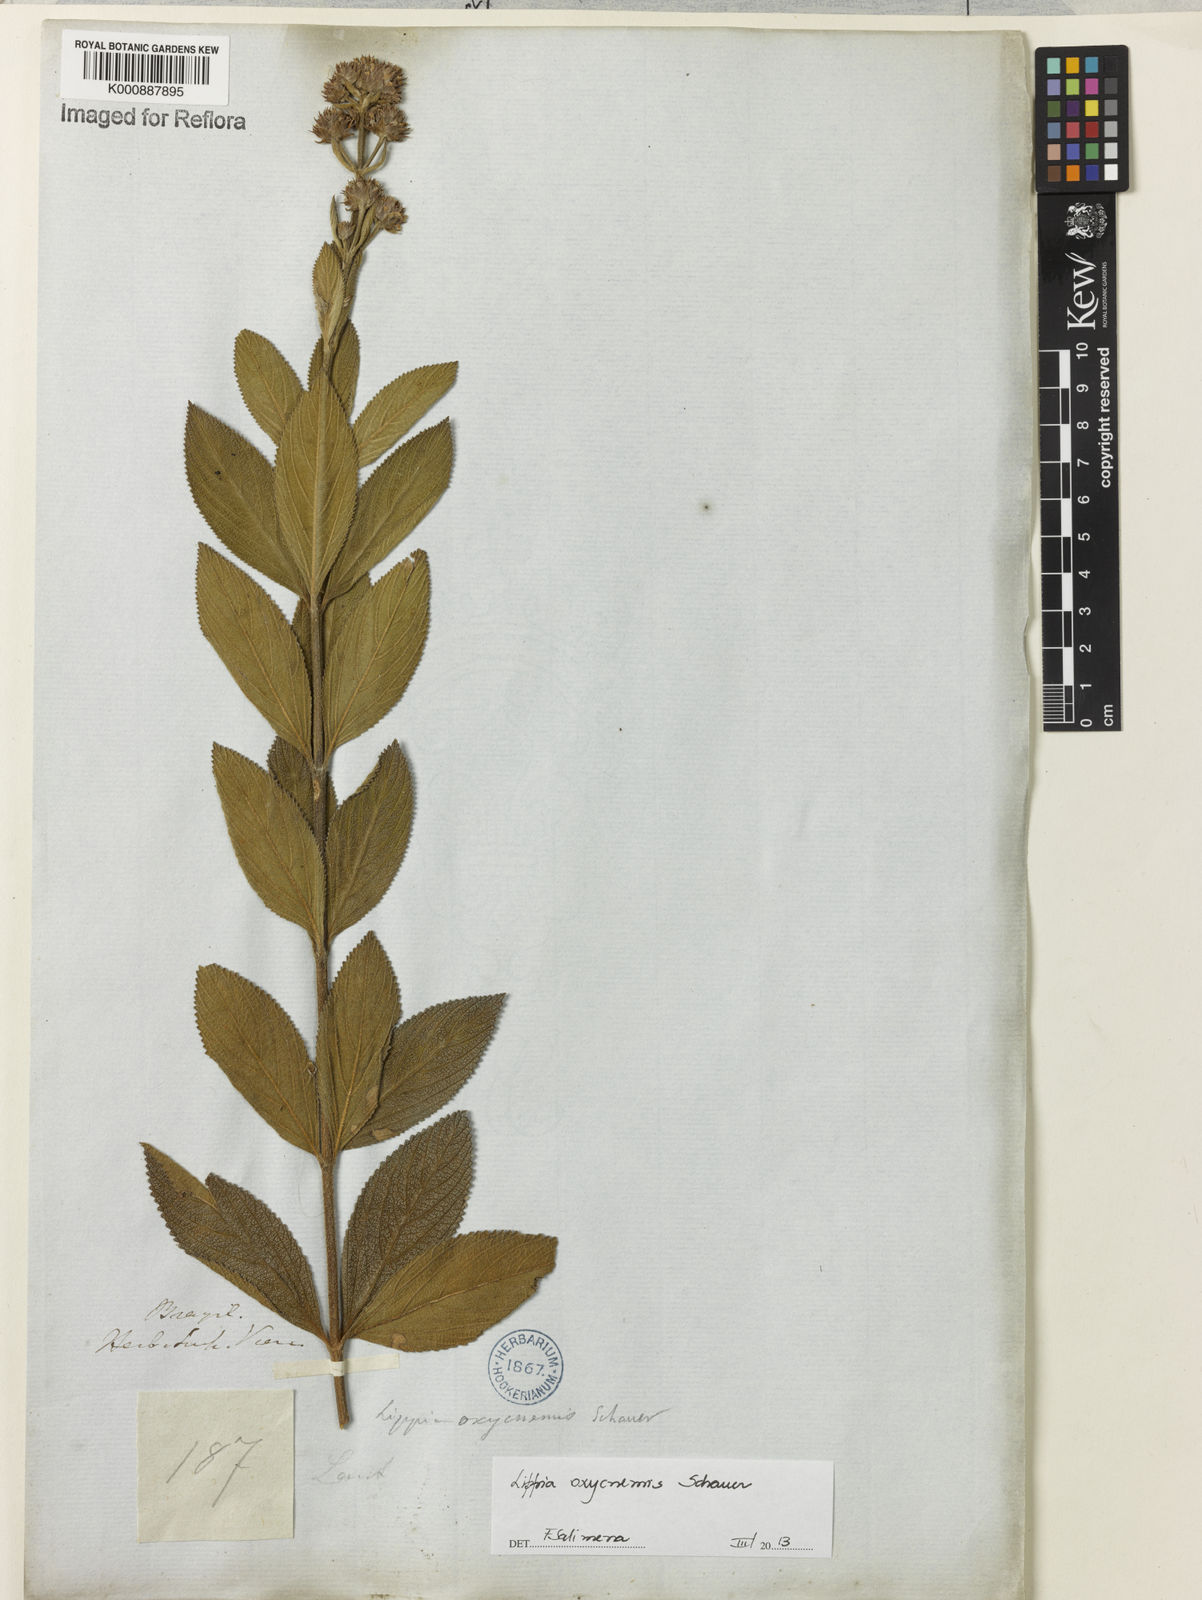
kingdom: Plantae
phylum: Tracheophyta
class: Magnoliopsida
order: Lamiales
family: Verbenaceae
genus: Lippia
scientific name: Lippia oxycnemis
